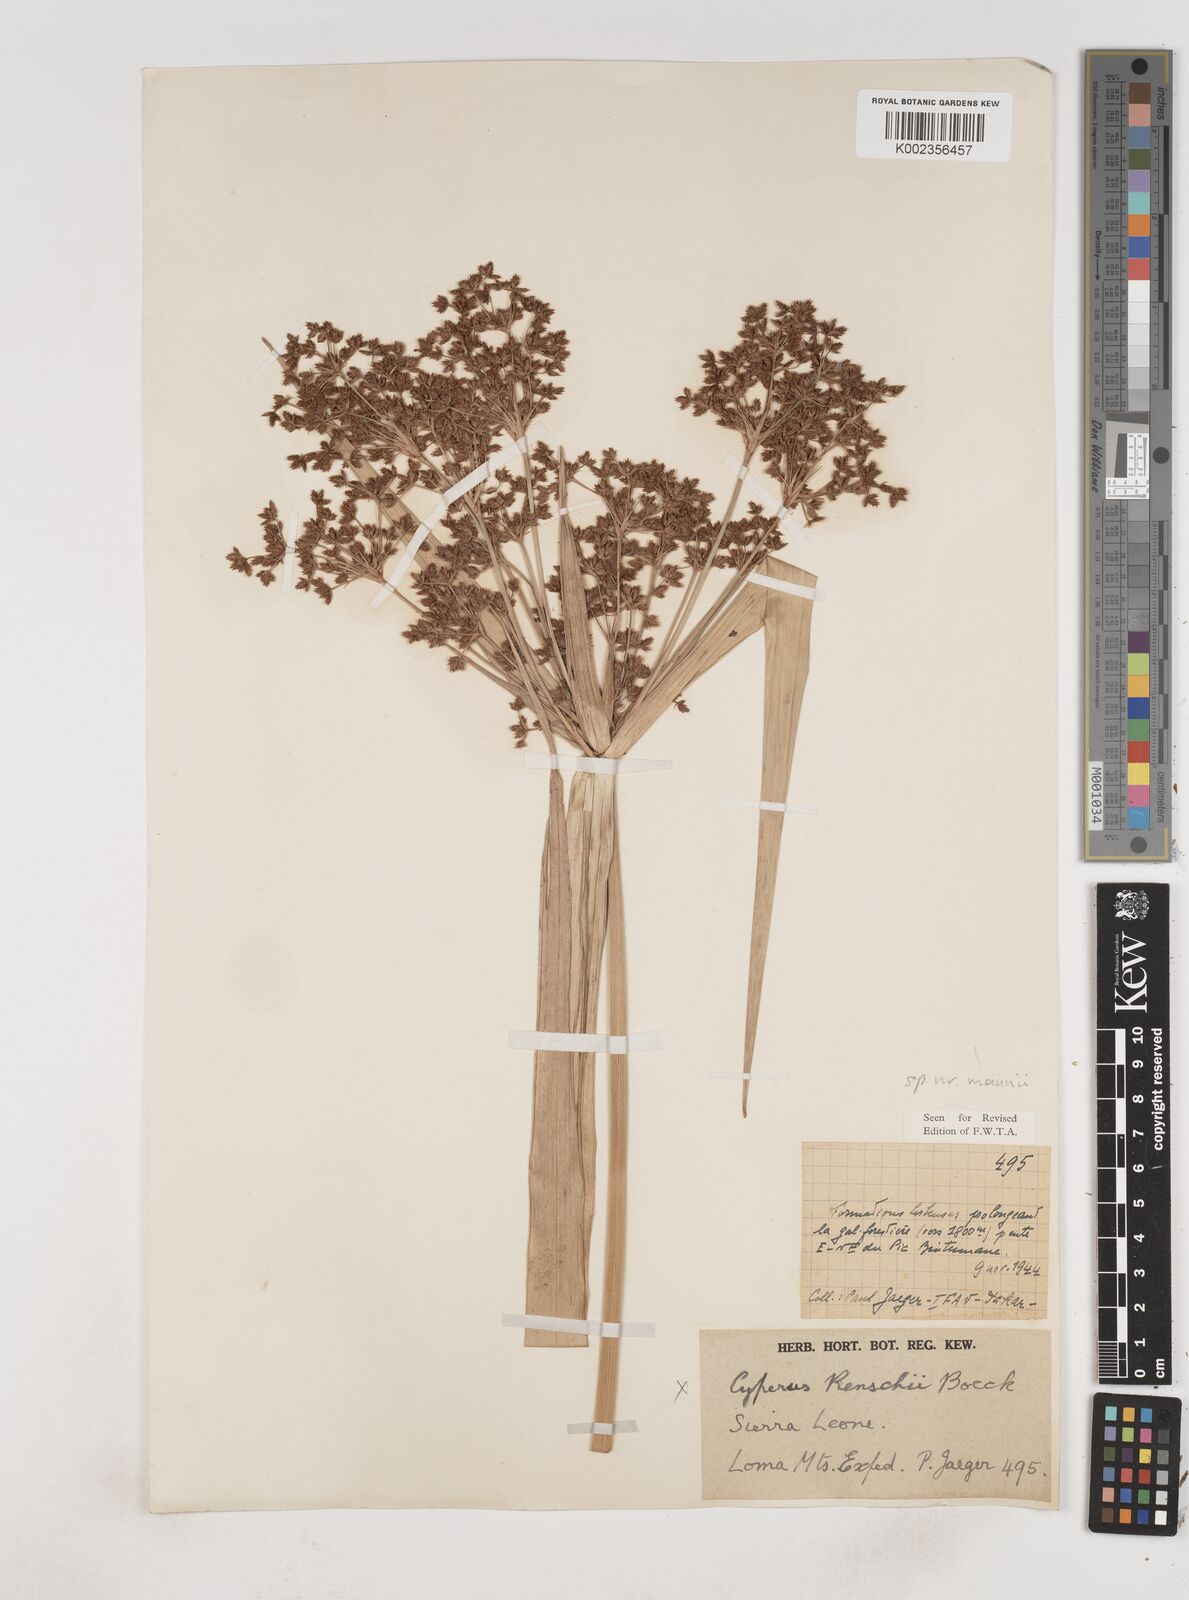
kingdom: Plantae
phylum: Tracheophyta
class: Liliopsida
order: Poales
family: Cyperaceae
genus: Cyperus
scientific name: Cyperus baronii
